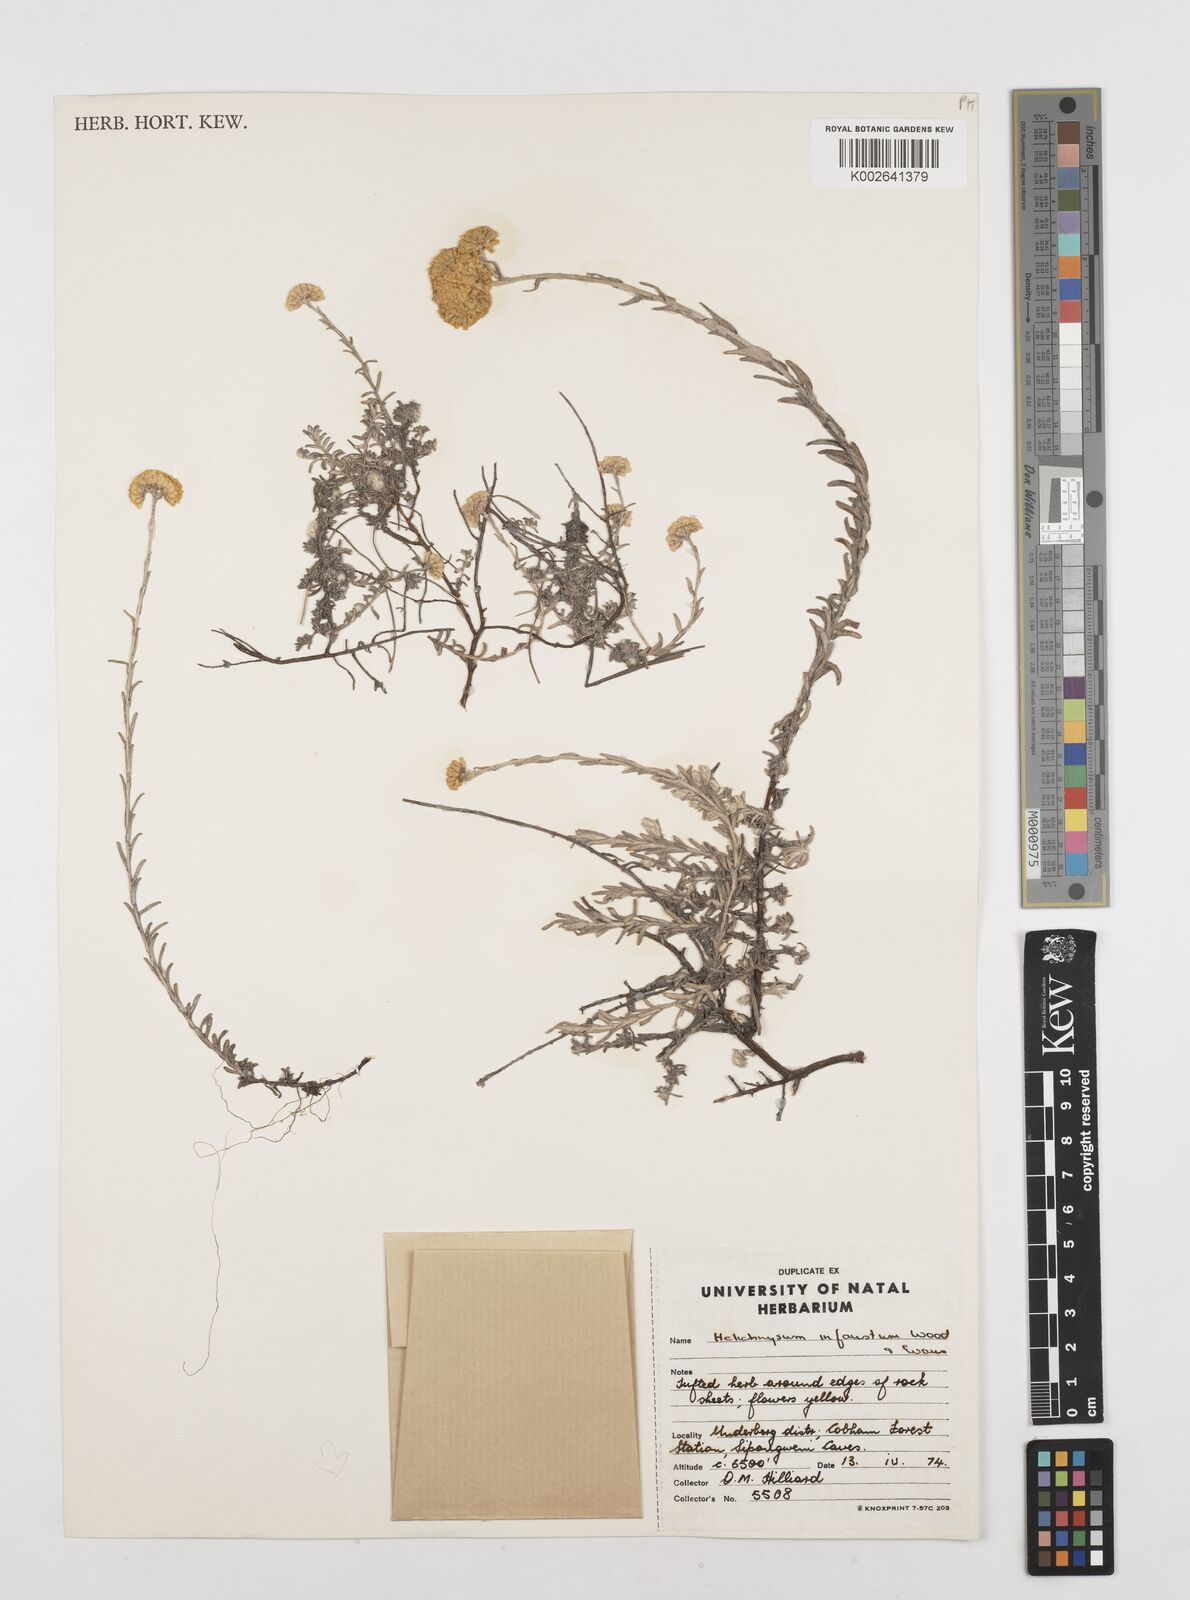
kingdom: Plantae
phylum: Tracheophyta
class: Magnoliopsida
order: Asterales
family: Asteraceae
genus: Calomeria
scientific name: Calomeria infausta
